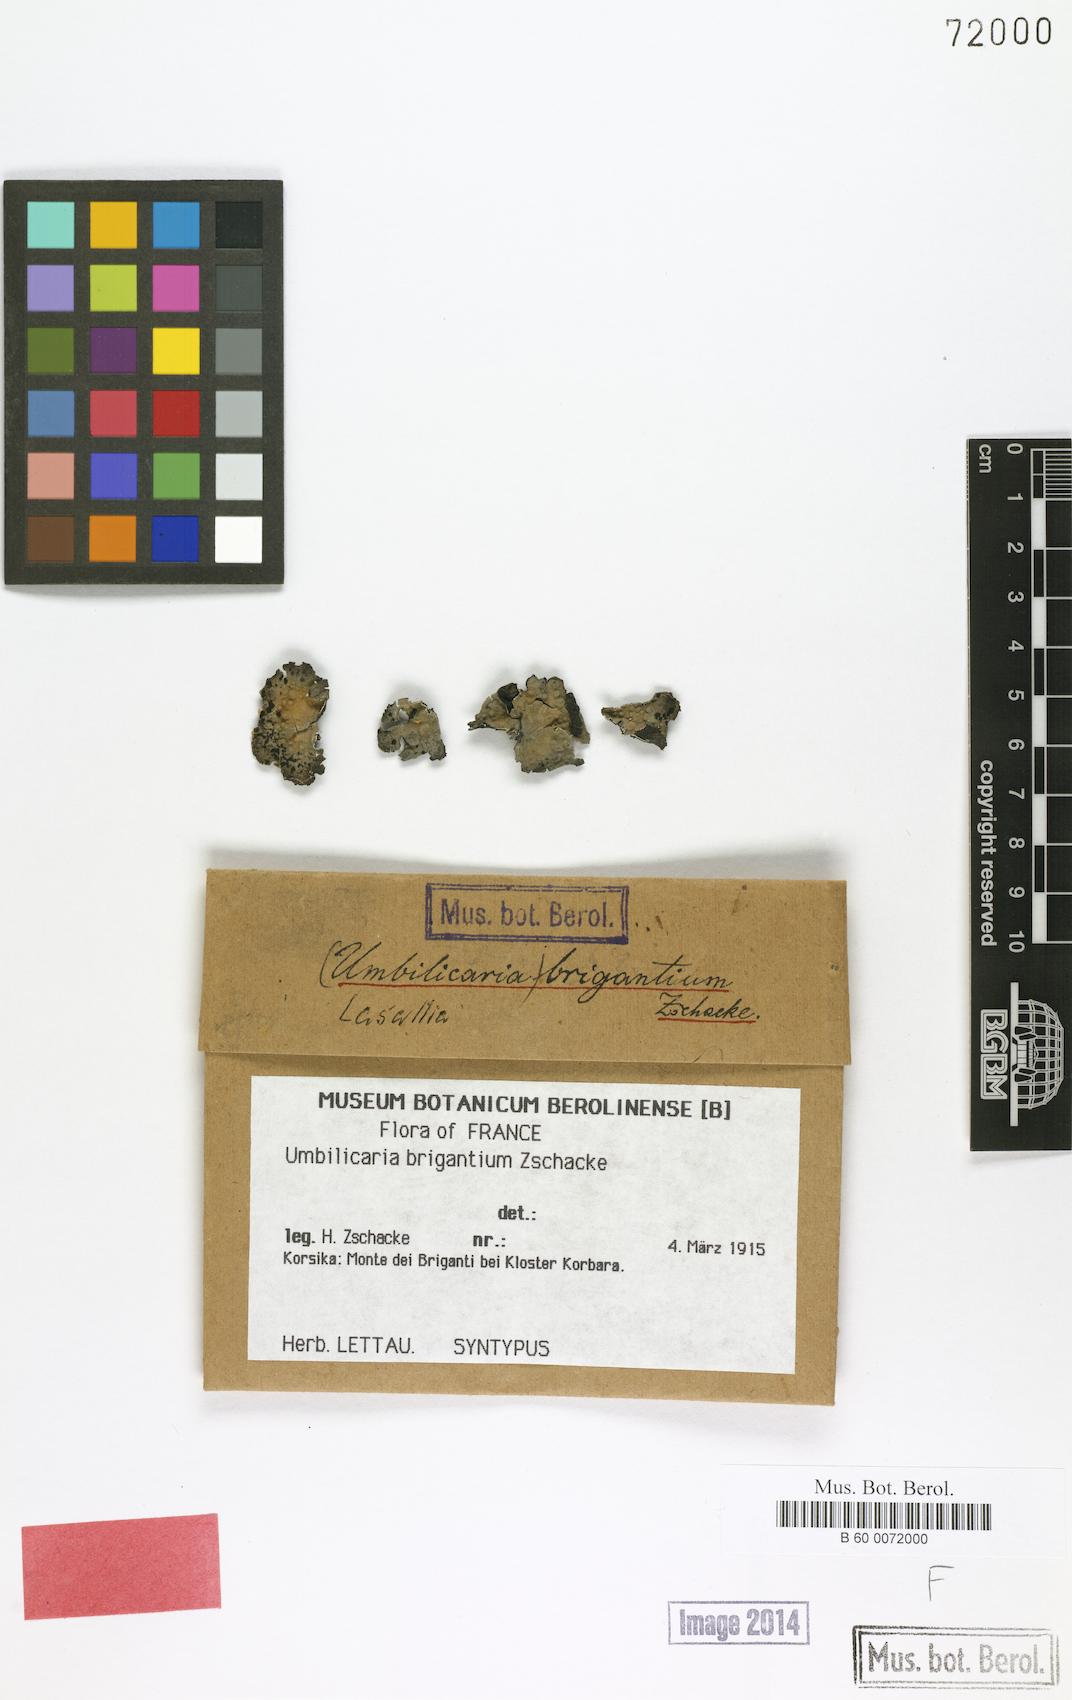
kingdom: Fungi
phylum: Ascomycota
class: Lecanoromycetes
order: Umbilicariales
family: Umbilicariaceae
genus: Lasallia
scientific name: Lasallia brigantium
